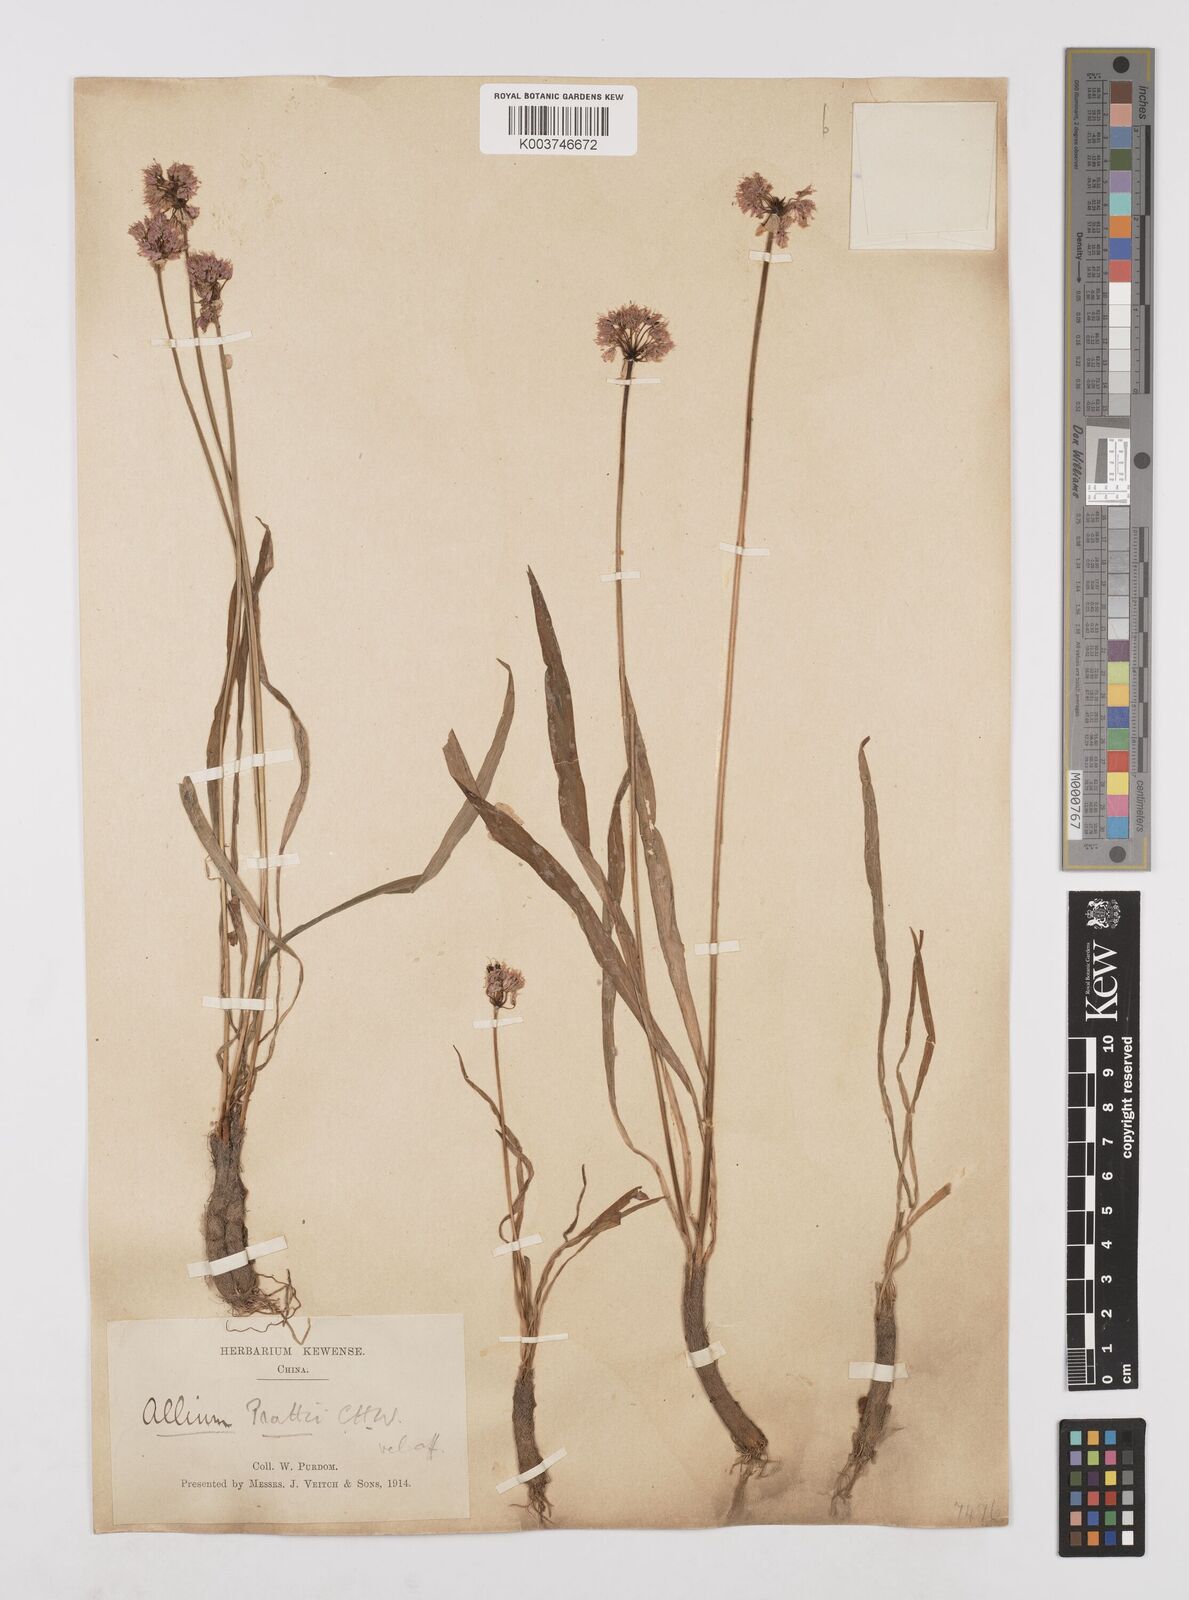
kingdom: Plantae
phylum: Tracheophyta
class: Liliopsida
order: Asparagales
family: Amaryllidaceae
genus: Allium
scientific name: Allium prattii
